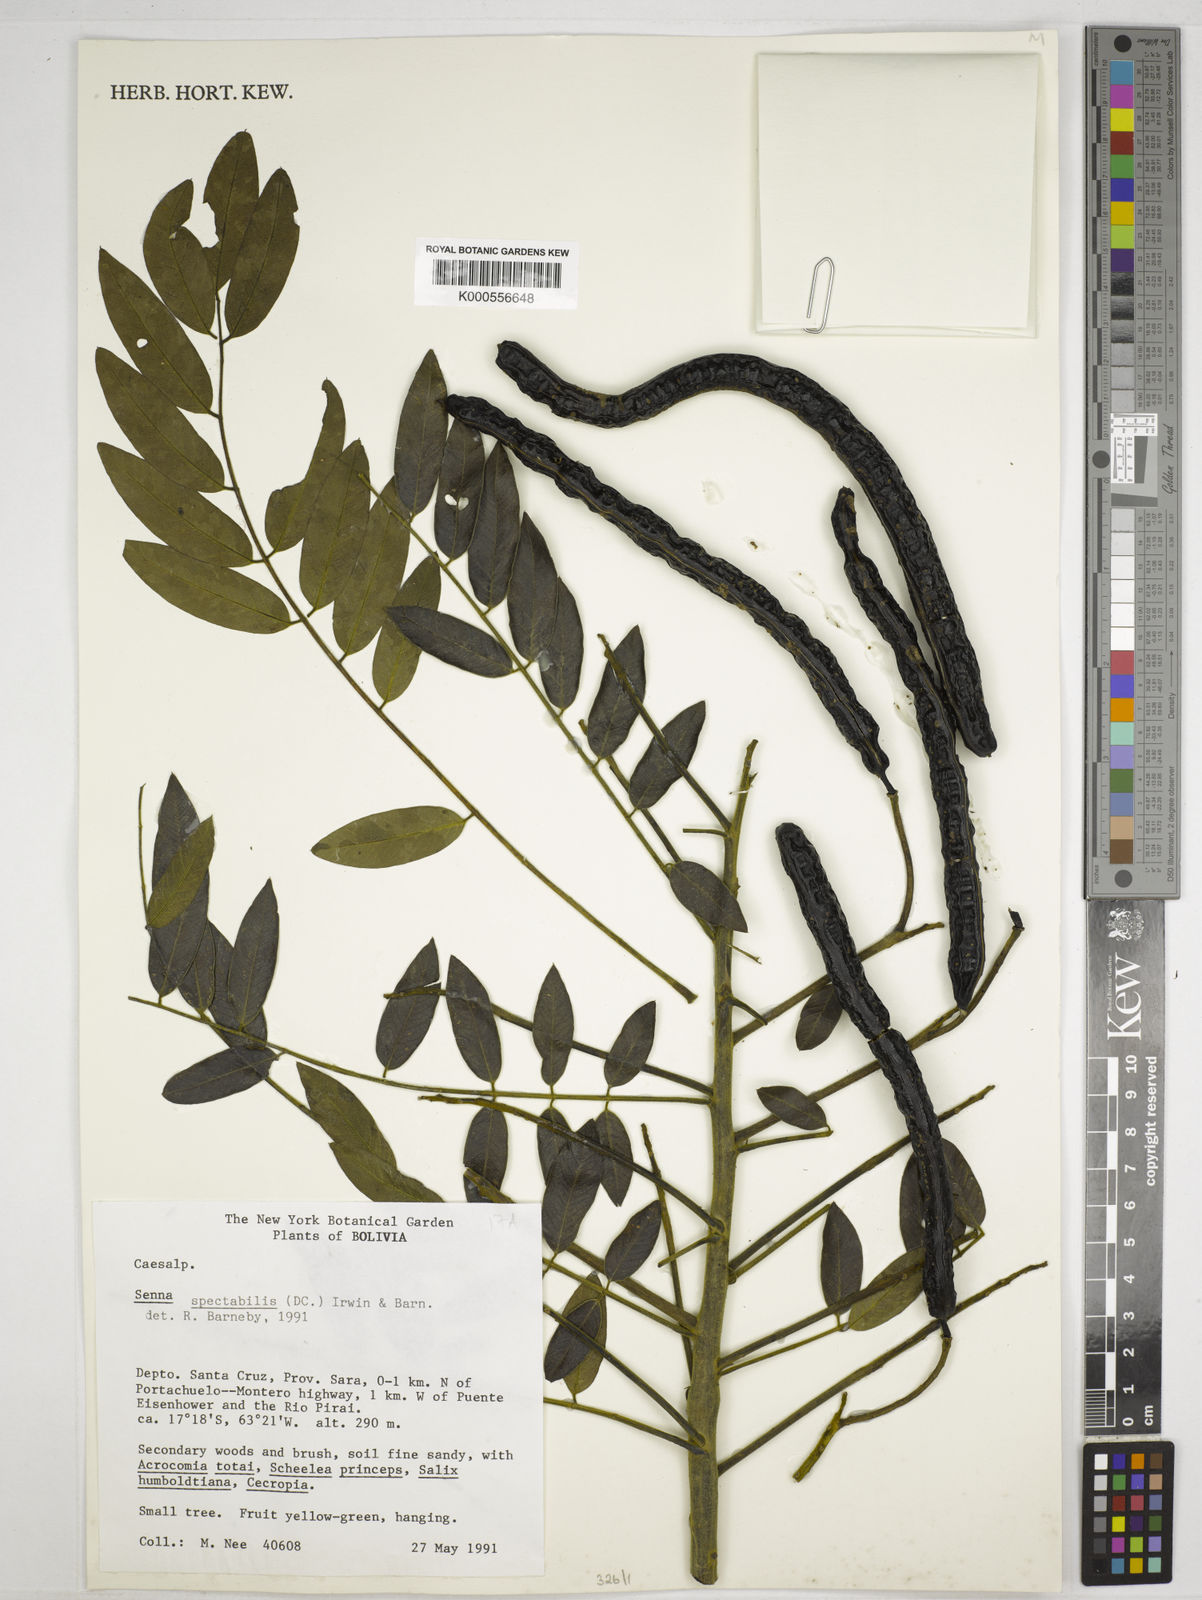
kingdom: Plantae
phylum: Tracheophyta
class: Magnoliopsida
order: Fabales
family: Fabaceae
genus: Senna
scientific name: Senna spectabilis
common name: Casia amarilla
